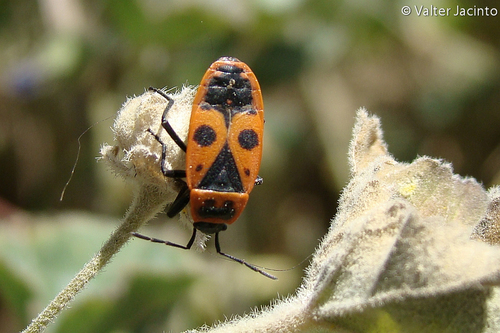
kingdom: Animalia
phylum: Arthropoda
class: Insecta
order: Hemiptera
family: Pyrrhocoridae
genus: Pyrrhocoris
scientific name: Pyrrhocoris apterus
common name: Firebug
